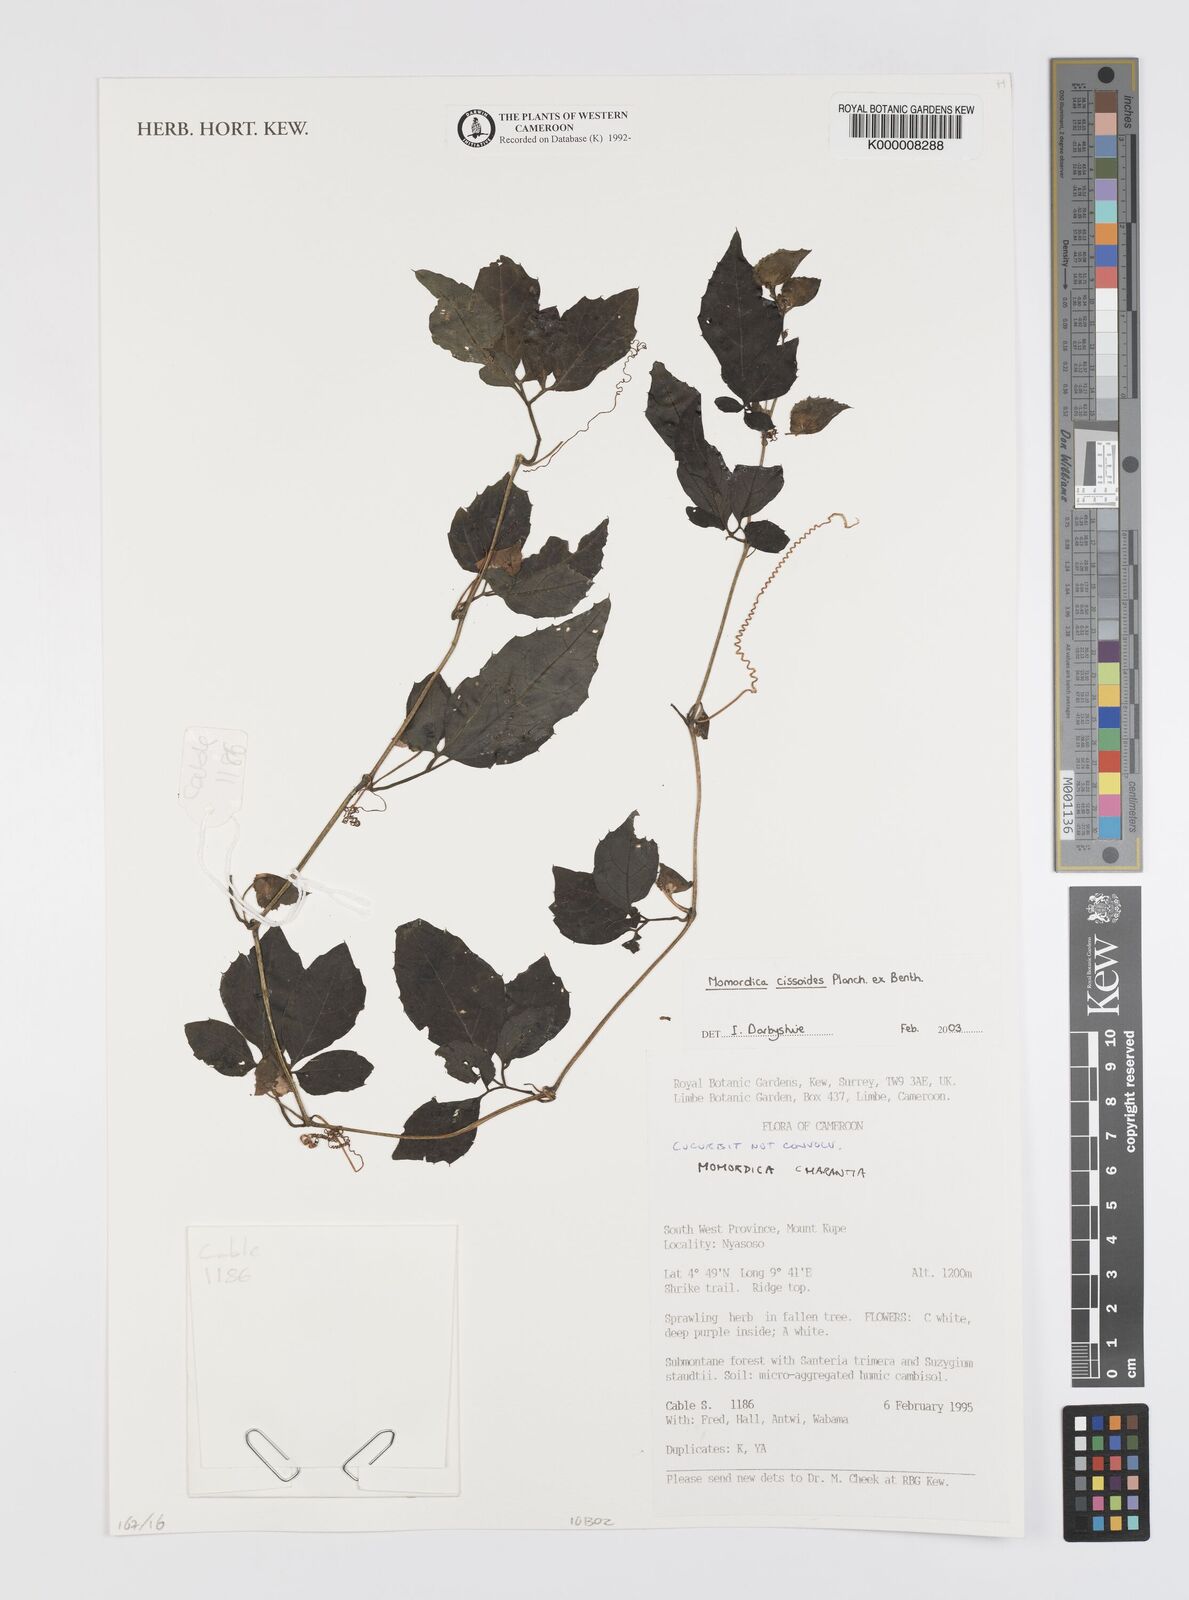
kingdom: Plantae
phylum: Tracheophyta
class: Magnoliopsida
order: Cucurbitales
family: Cucurbitaceae
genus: Momordica
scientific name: Momordica cissoides
